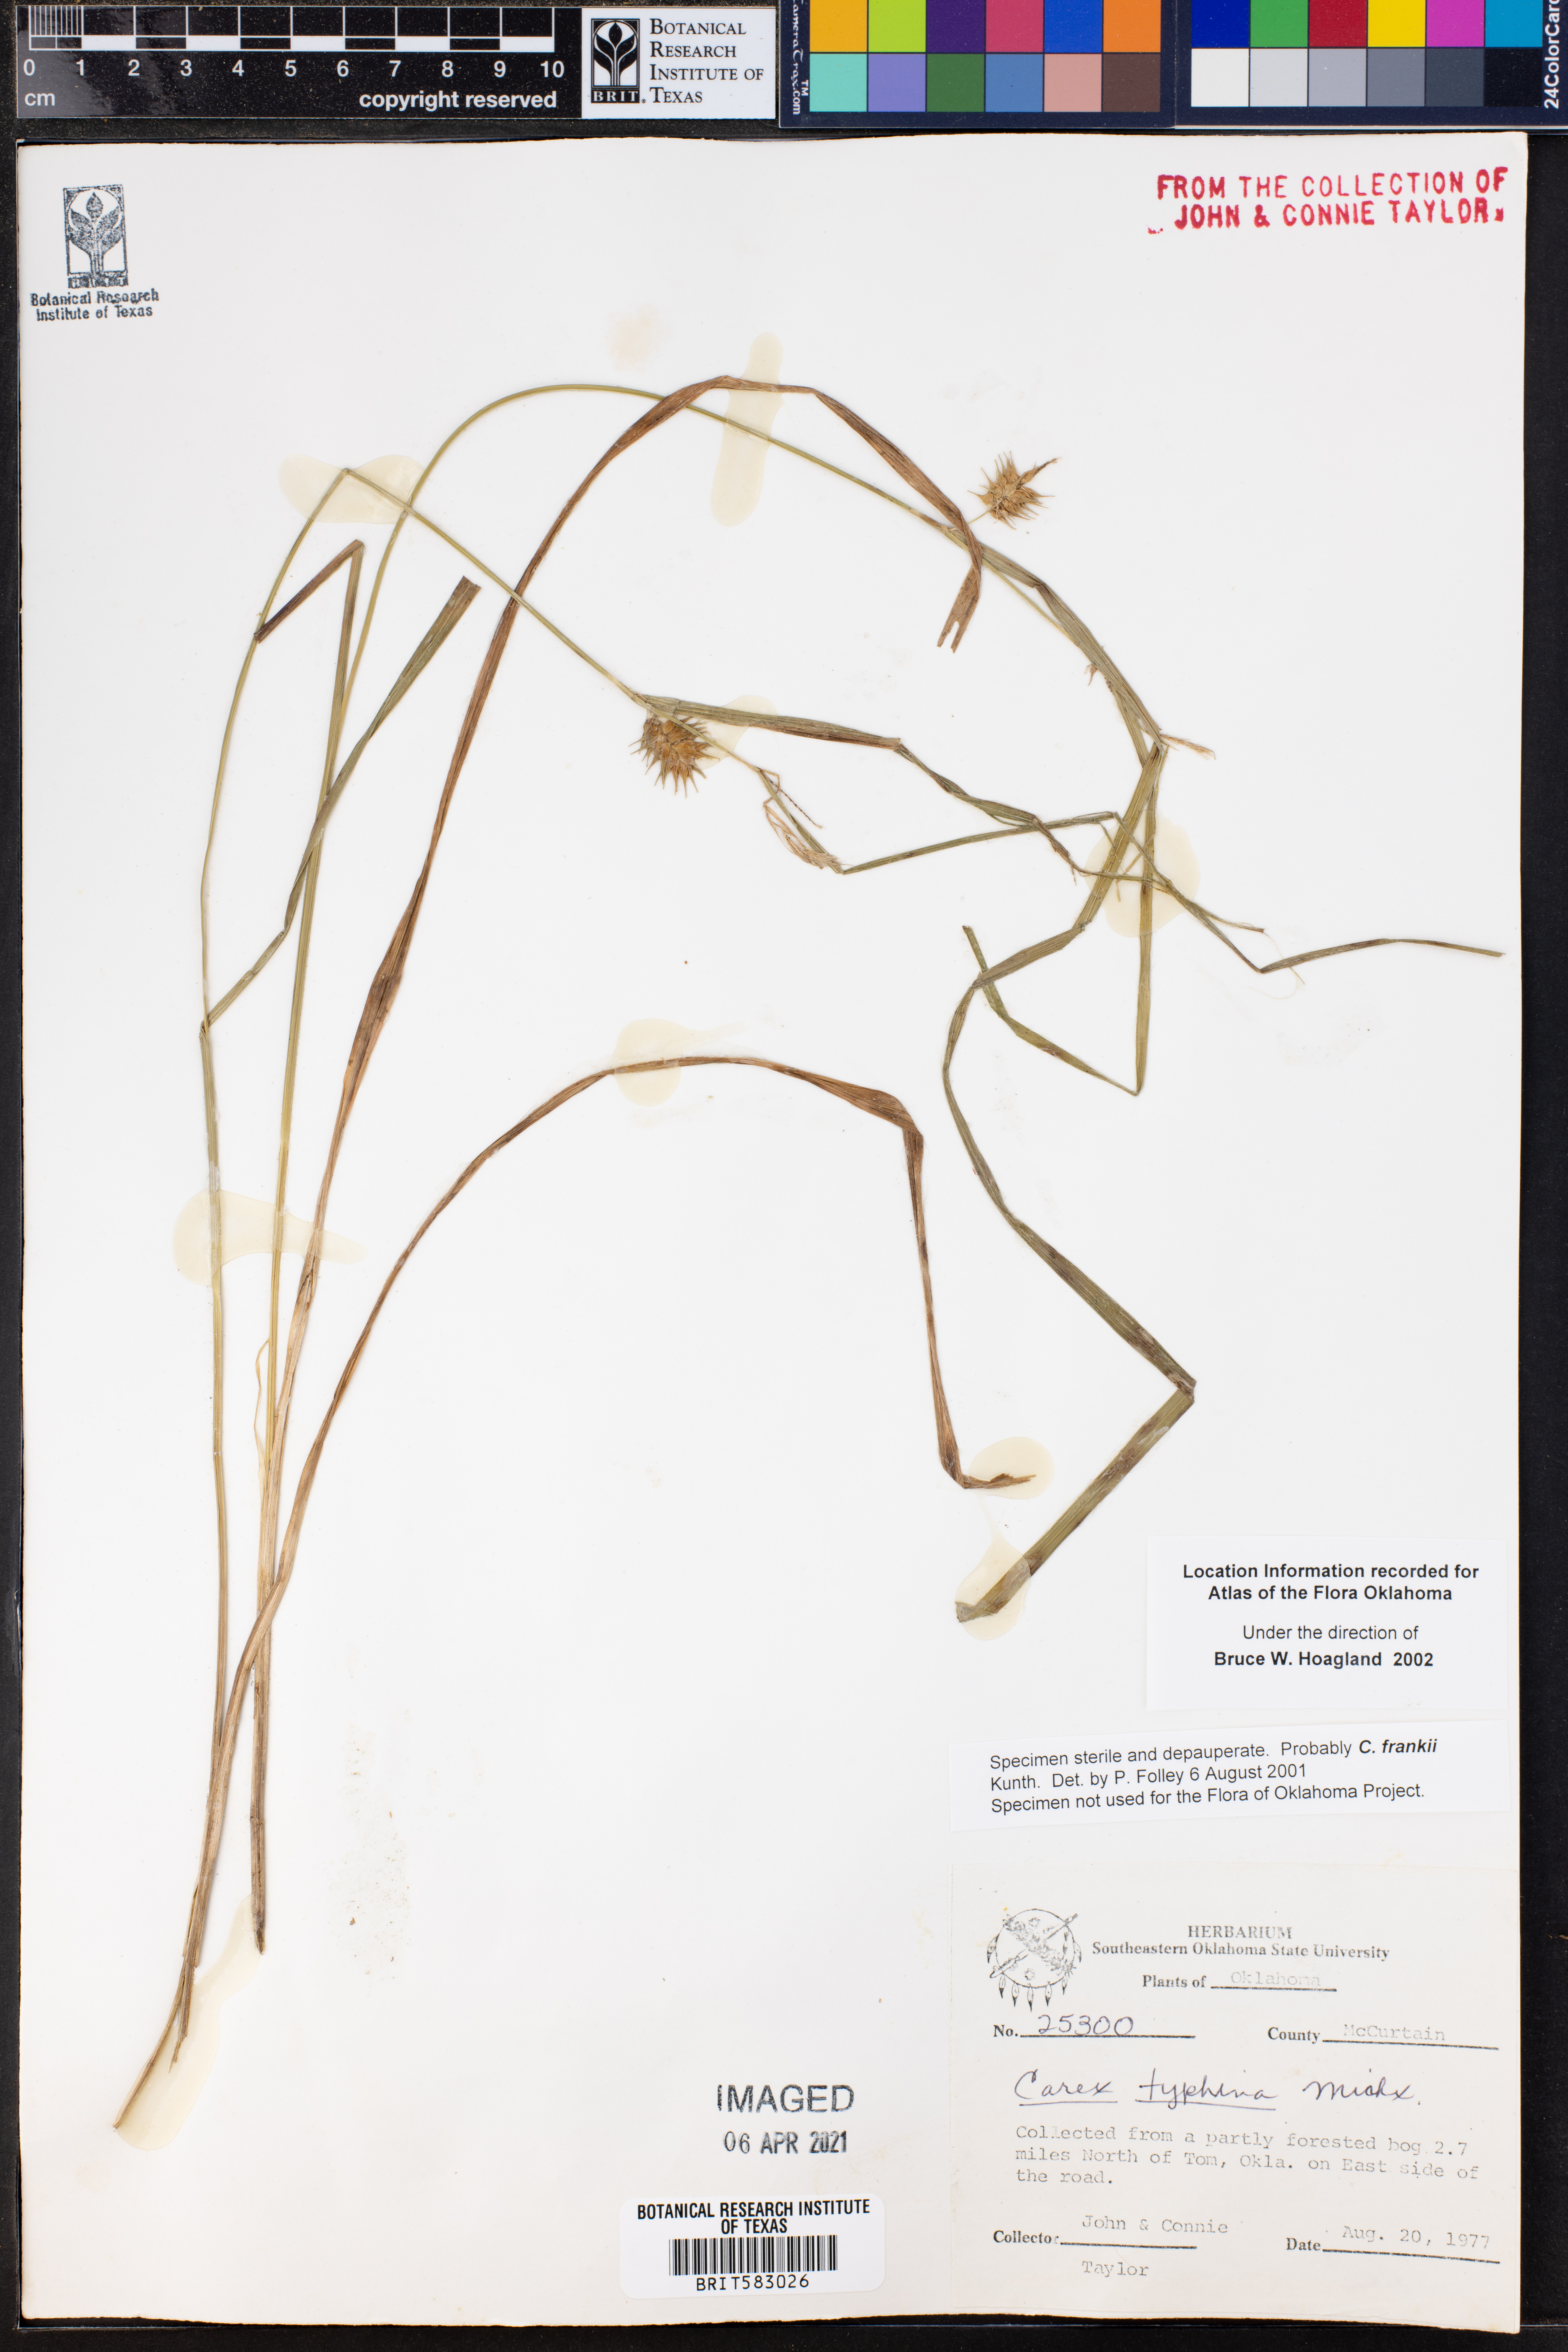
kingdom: Plantae
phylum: Tracheophyta
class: Liliopsida
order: Poales
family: Cyperaceae
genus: Carex
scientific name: Carex frankii
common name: Frank's sedge
